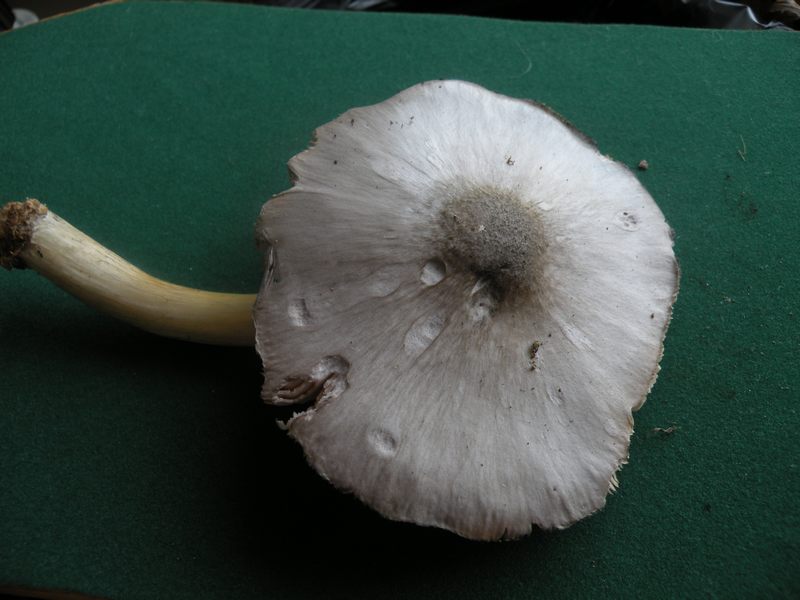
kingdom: Fungi
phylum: Basidiomycota
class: Agaricomycetes
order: Agaricales
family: Pluteaceae
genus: Pluteus
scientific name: Pluteus salicinus
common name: stiv skærmhat
